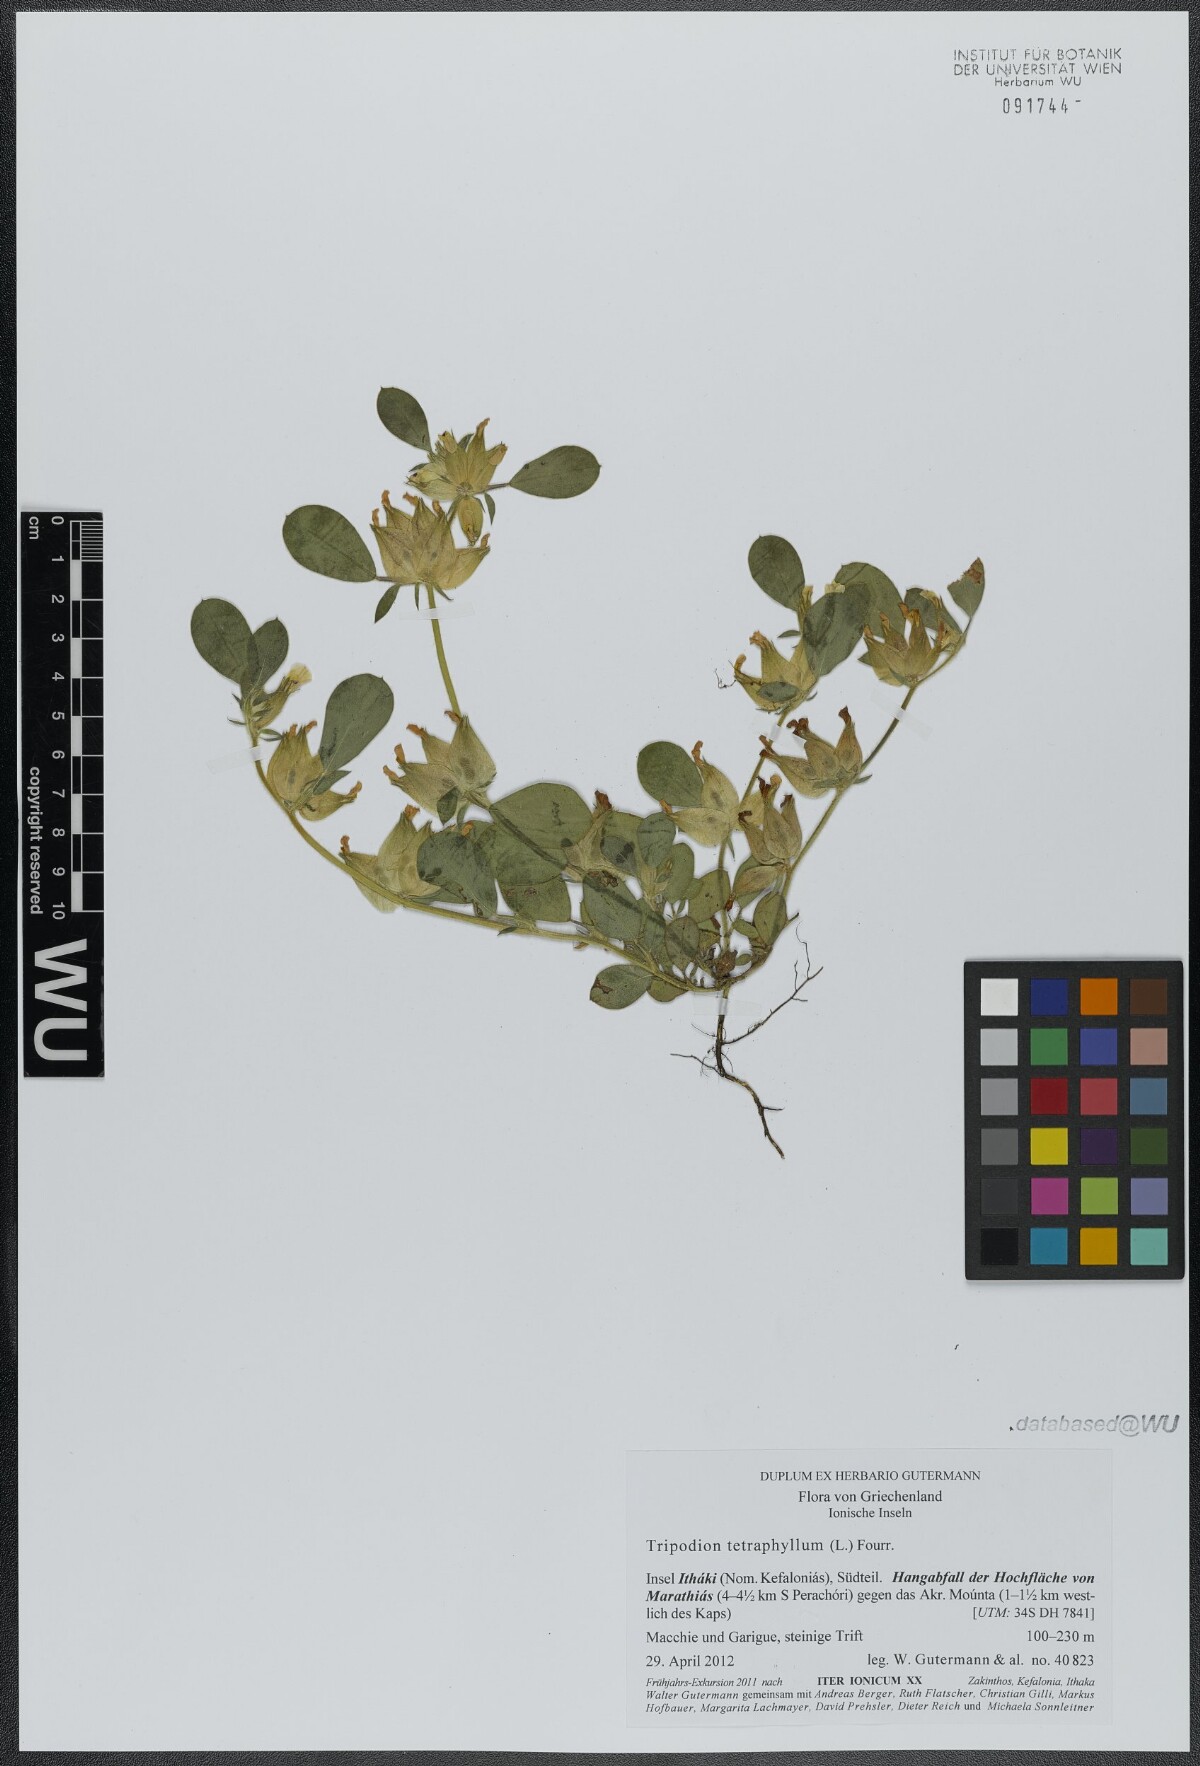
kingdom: Plantae
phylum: Tracheophyta
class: Magnoliopsida
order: Fabales
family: Fabaceae
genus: Tripodion
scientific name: Tripodion tetraphyllum
